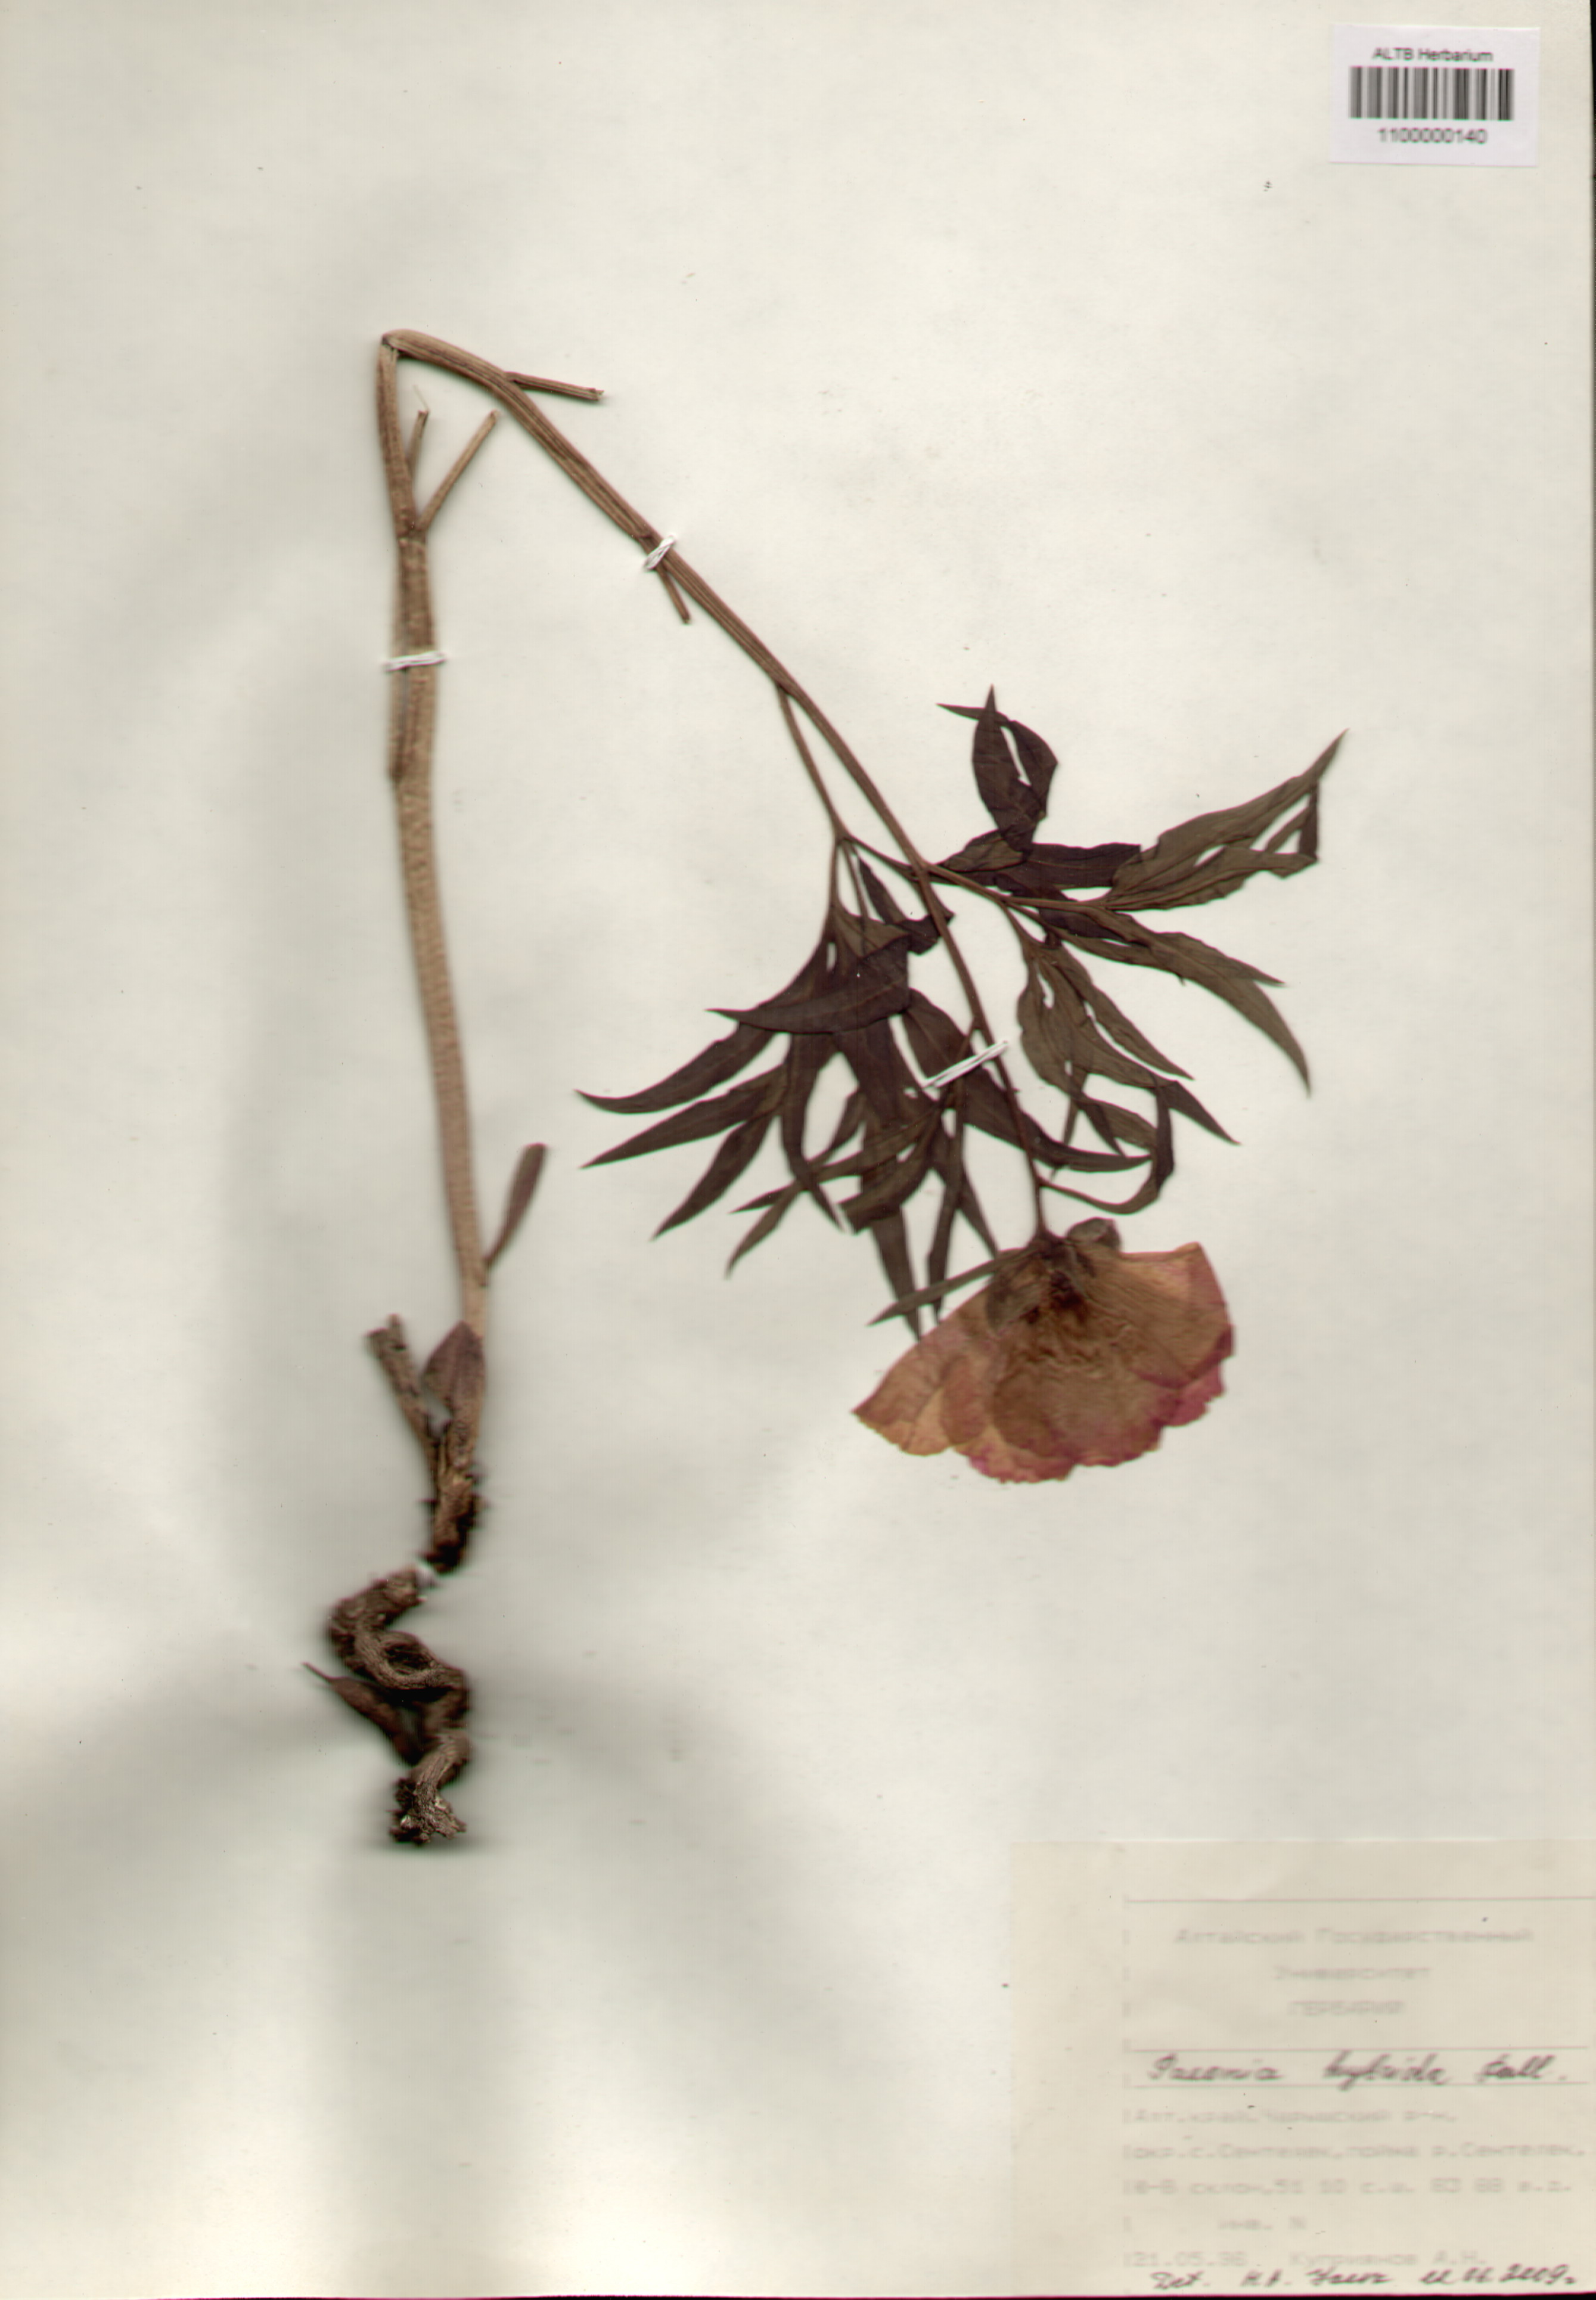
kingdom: Plantae
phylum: Tracheophyta
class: Magnoliopsida
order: Saxifragales
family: Paeoniaceae
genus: Paeonia
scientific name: Paeonia
